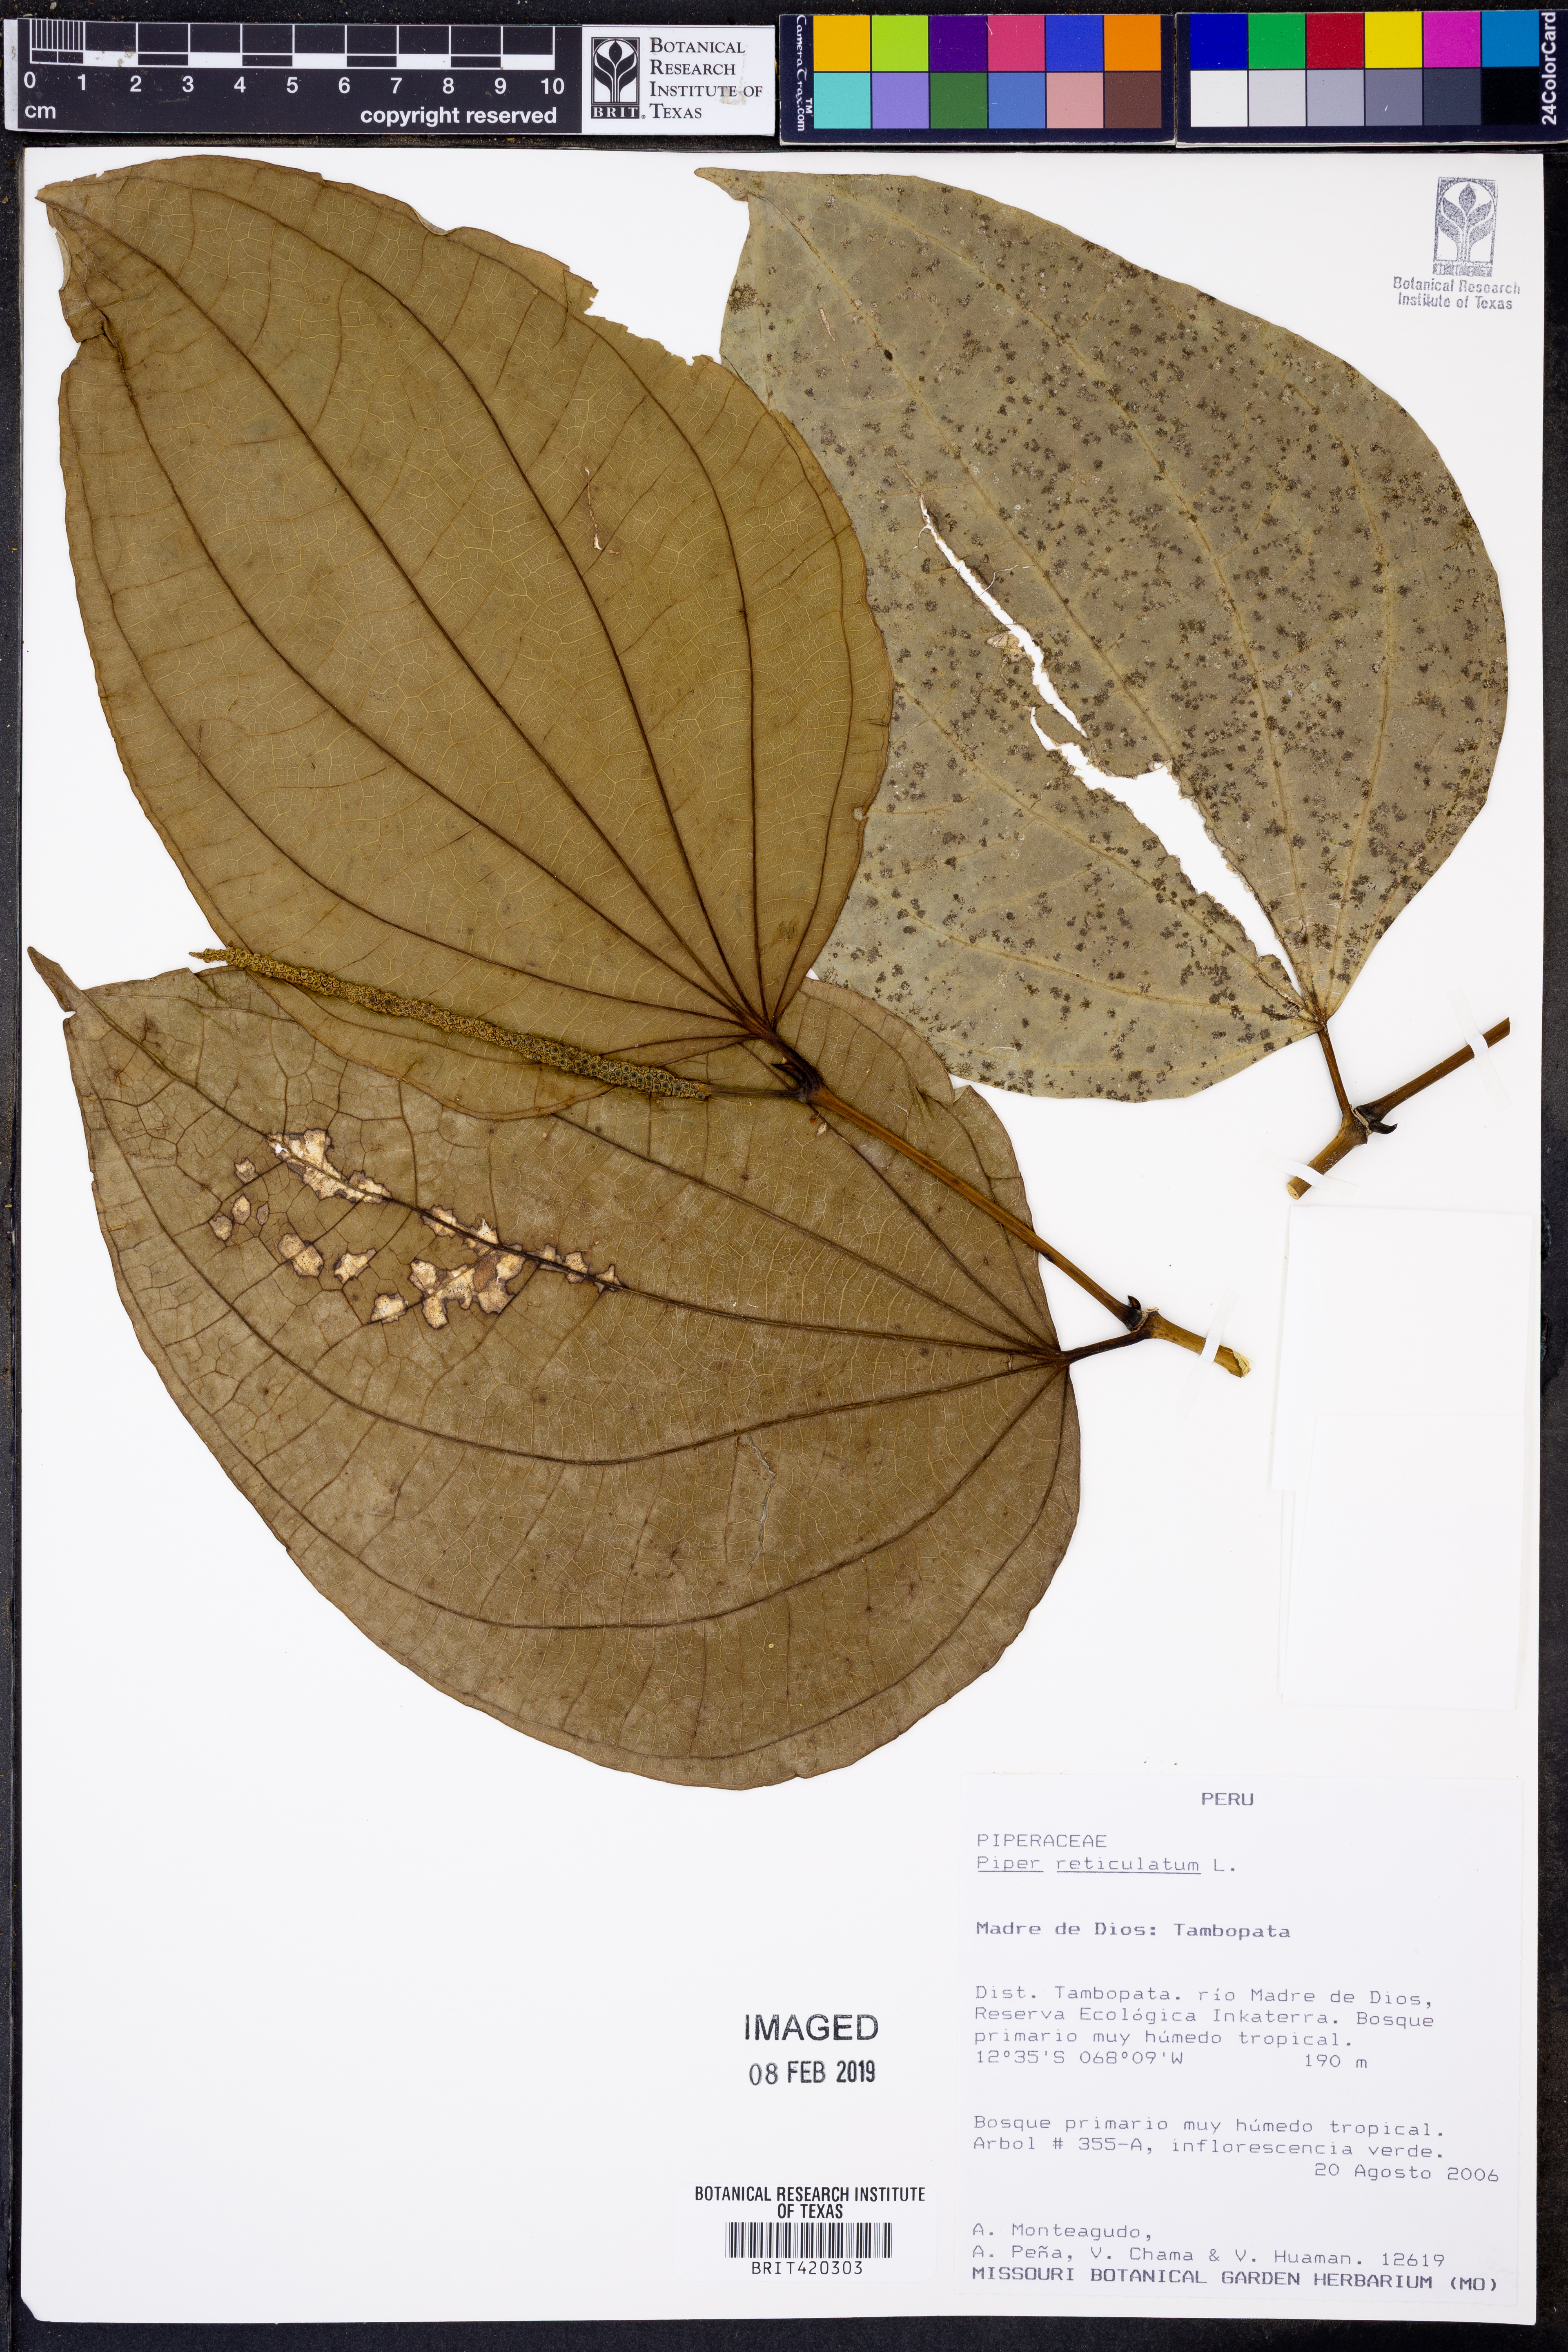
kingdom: Plantae
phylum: Tracheophyta
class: Magnoliopsida
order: Piperales
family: Piperaceae
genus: Piper
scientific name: Piper reticulatum
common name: Wild cane
